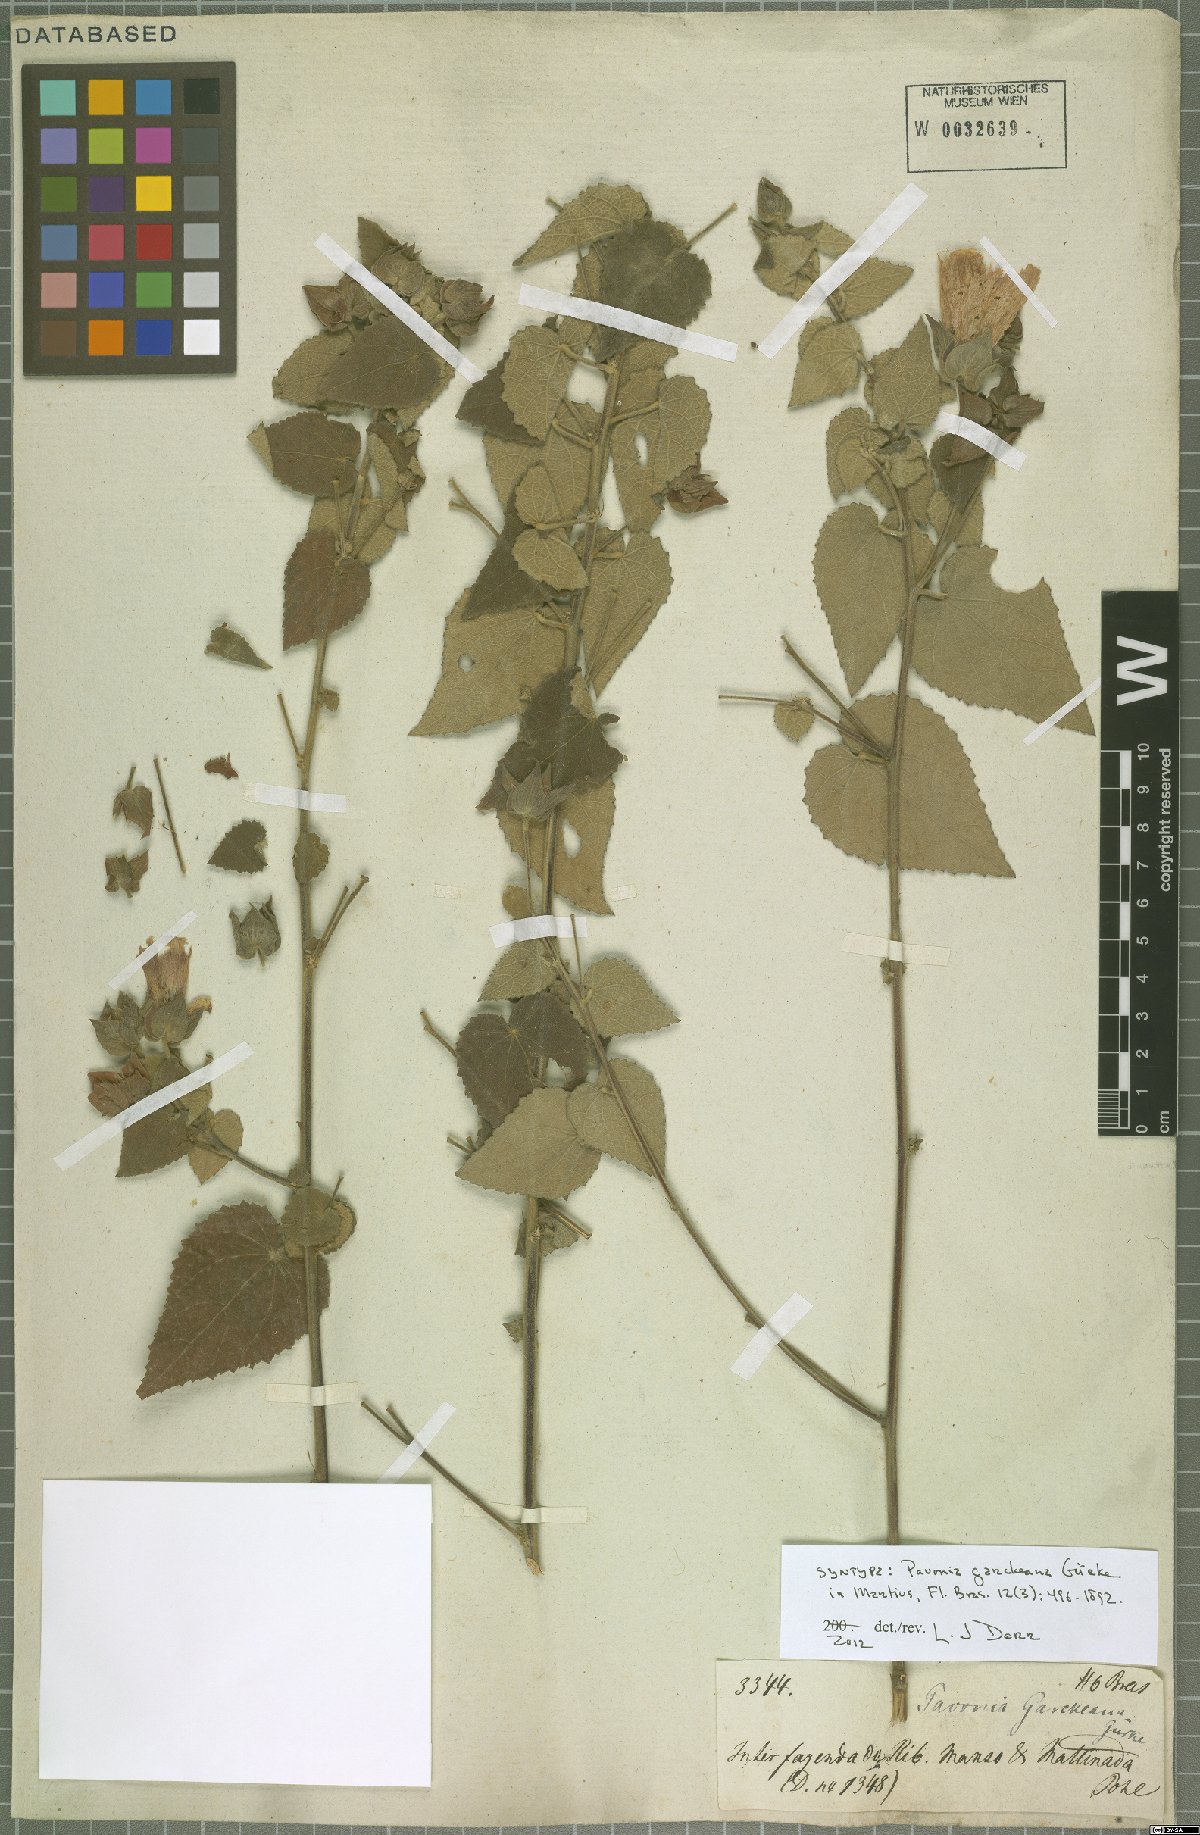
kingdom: Plantae
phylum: Tracheophyta
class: Magnoliopsida
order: Malvales
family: Malvaceae
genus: Pavonia
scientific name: Pavonia garckeana
